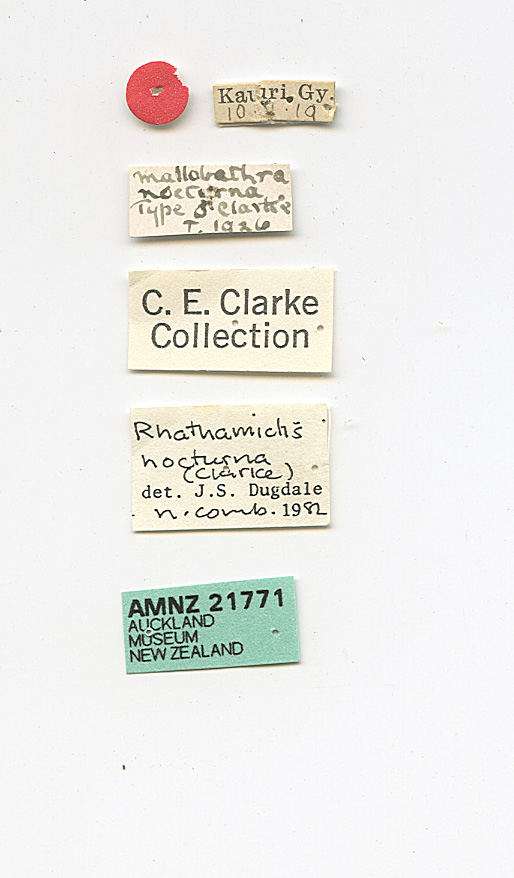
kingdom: Animalia
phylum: Arthropoda
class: Insecta
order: Lepidoptera
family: Psychidae
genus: Rhathamictis
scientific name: Rhathamictis nocturna
